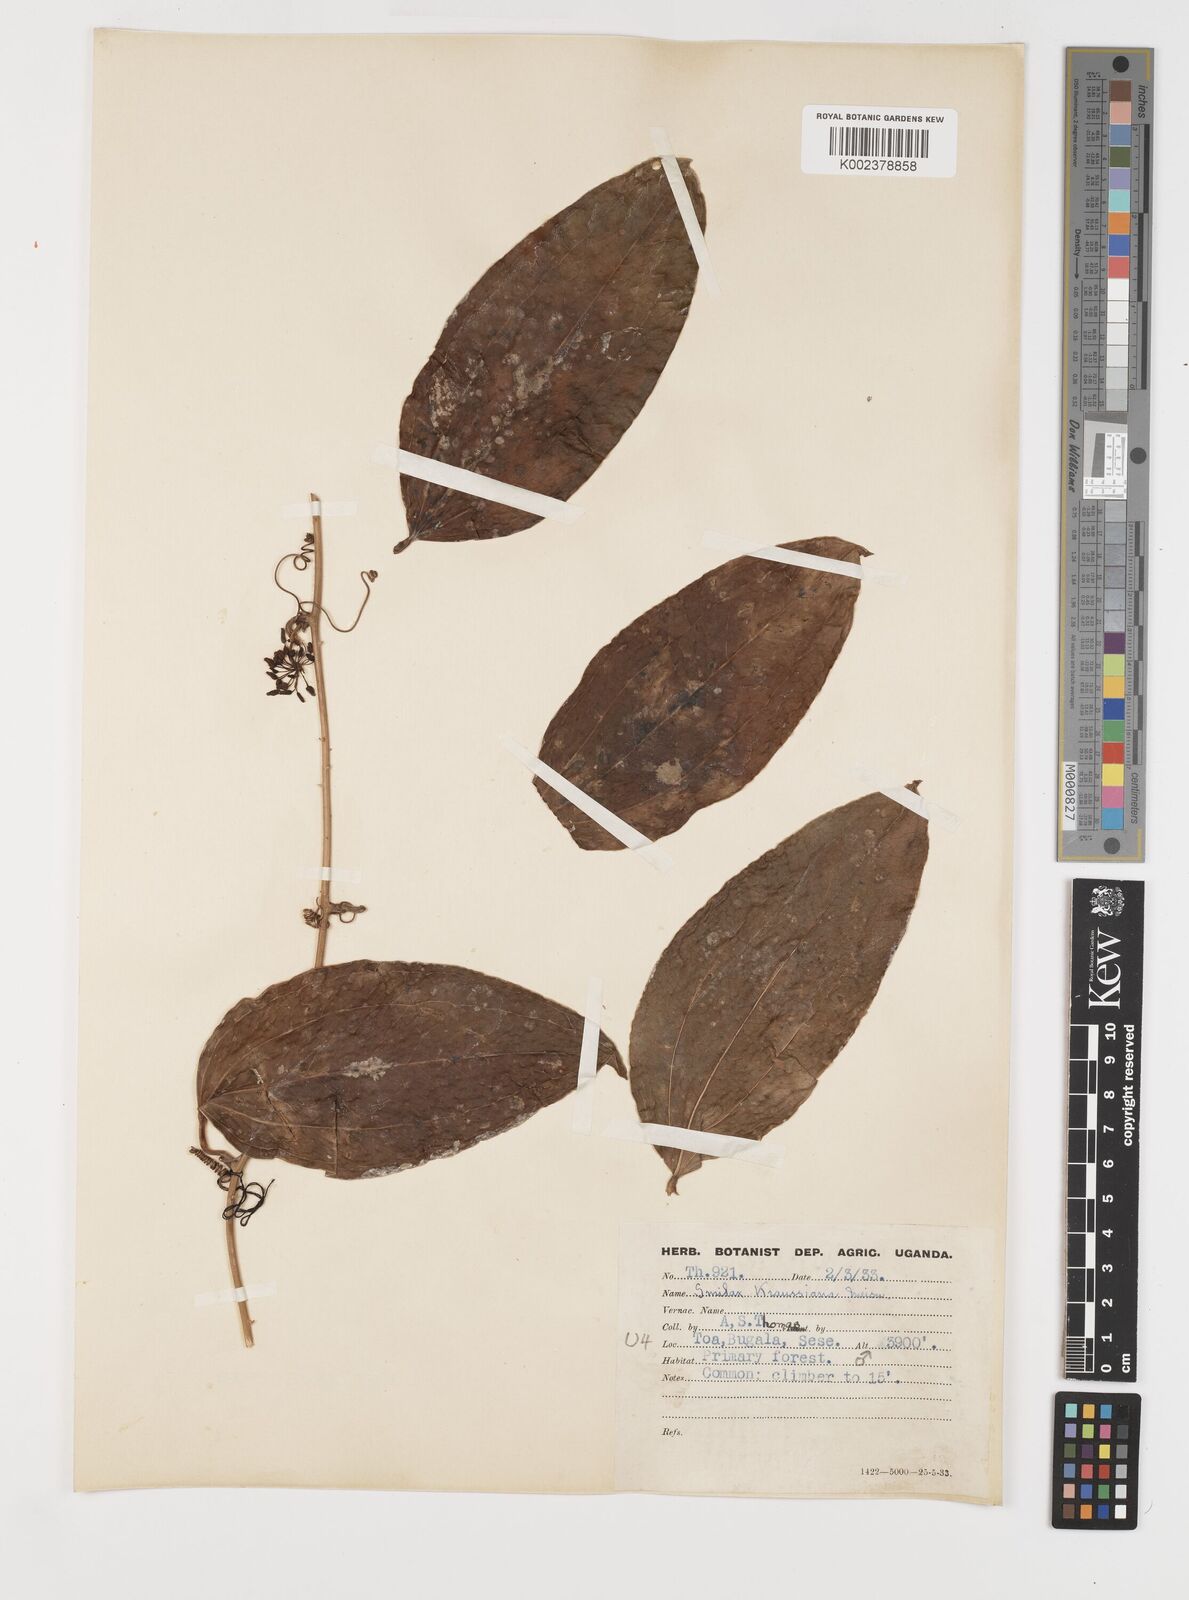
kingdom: Plantae
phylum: Tracheophyta
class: Liliopsida
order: Liliales
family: Smilacaceae
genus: Smilax
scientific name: Smilax anceps
